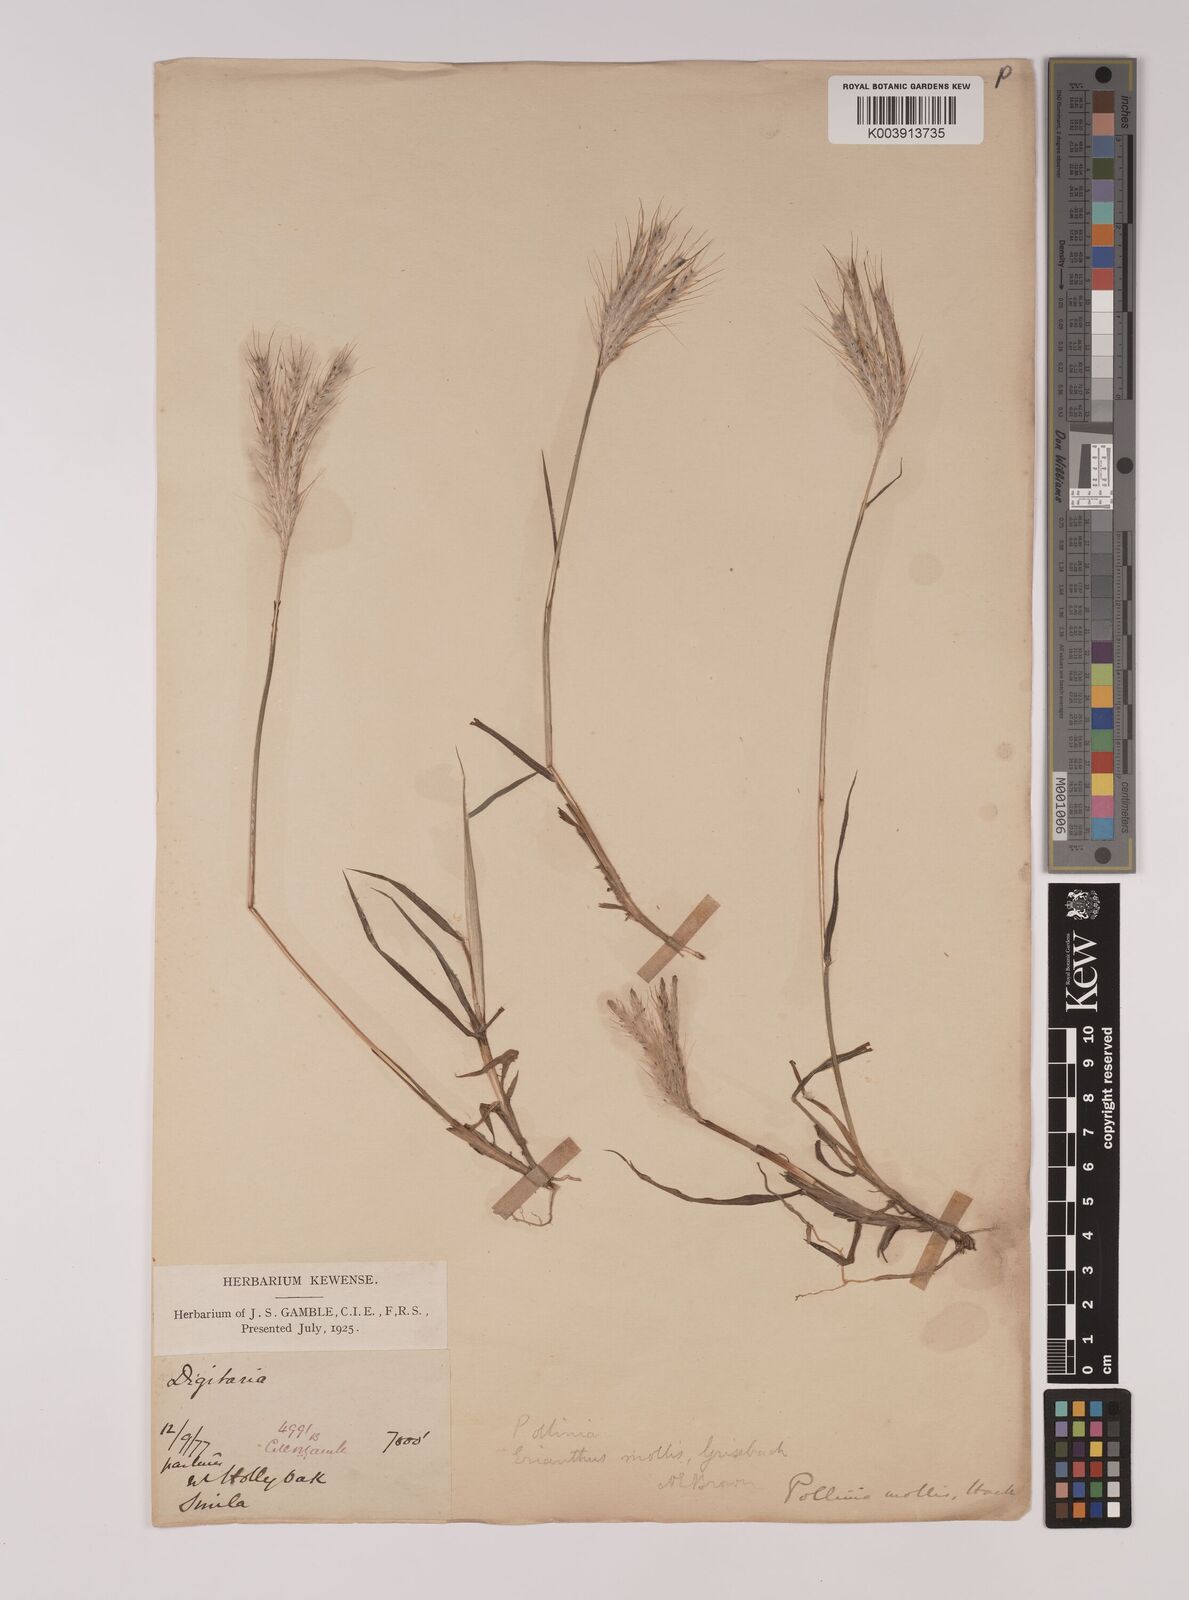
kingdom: Plantae
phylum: Tracheophyta
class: Liliopsida
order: Poales
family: Poaceae
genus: Eulalia
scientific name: Eulalia mollis
